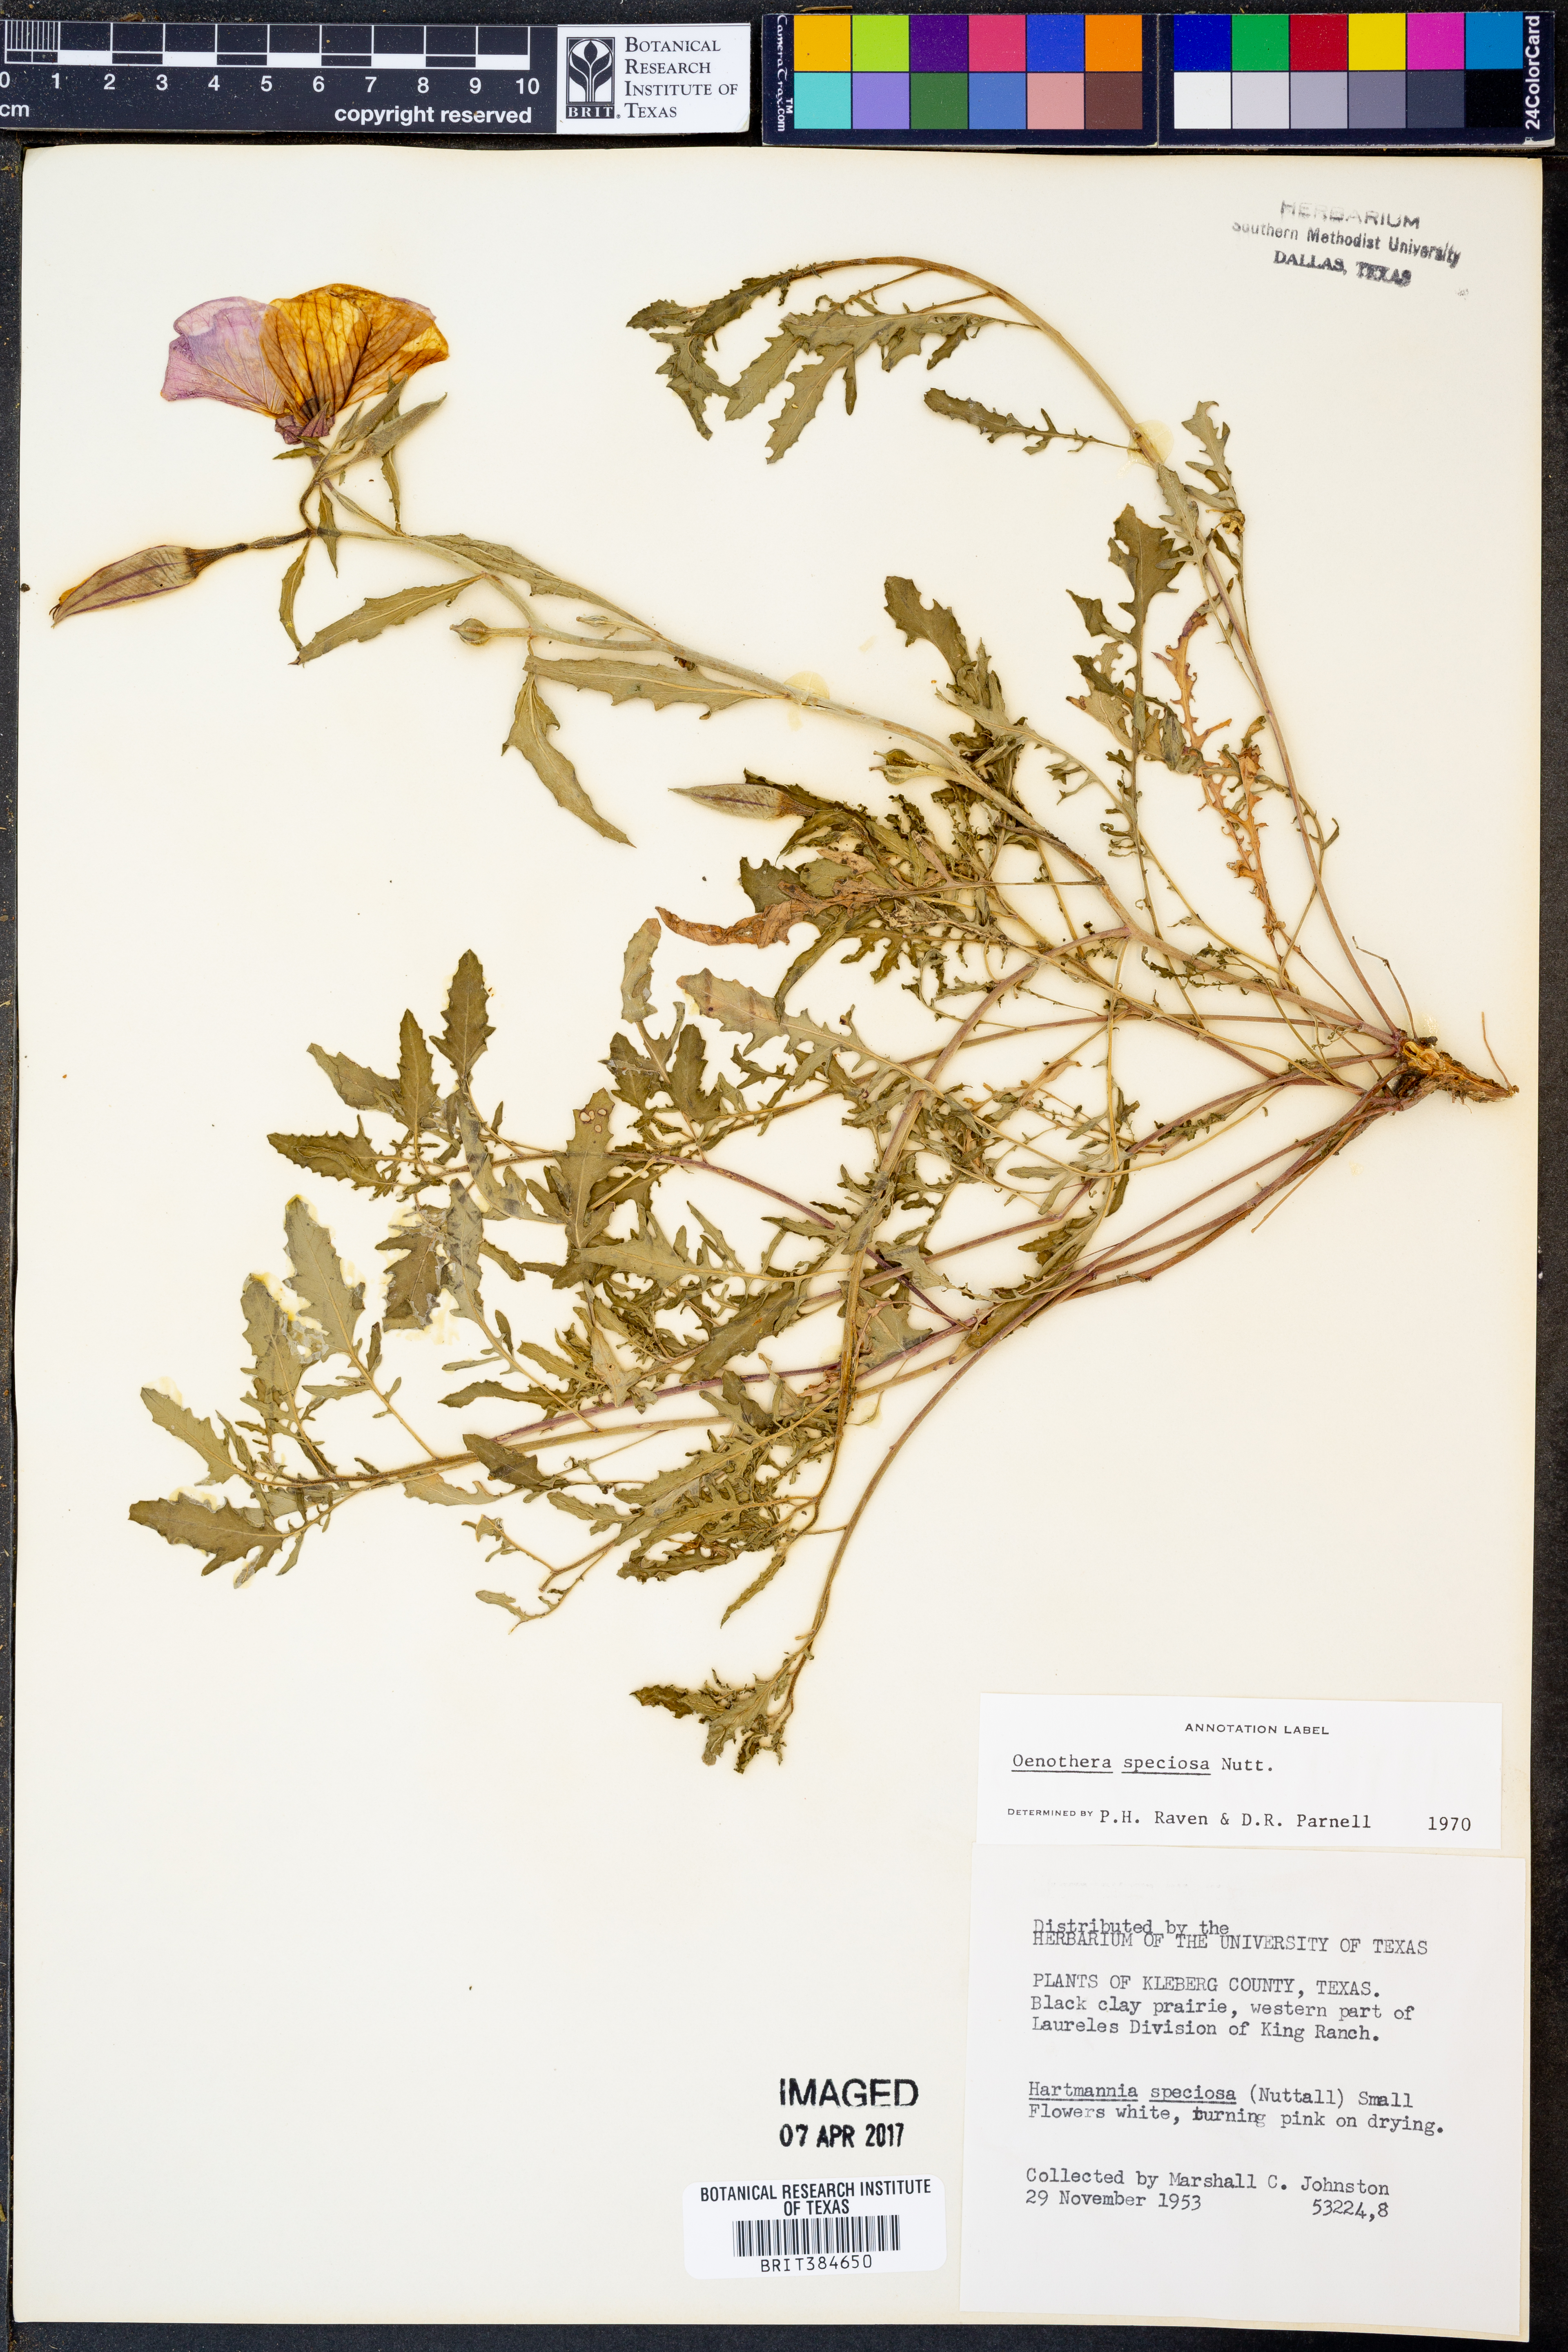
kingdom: Plantae
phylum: Tracheophyta
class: Magnoliopsida
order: Myrtales
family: Onagraceae
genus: Oenothera
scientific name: Oenothera speciosa
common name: White evening-primrose
